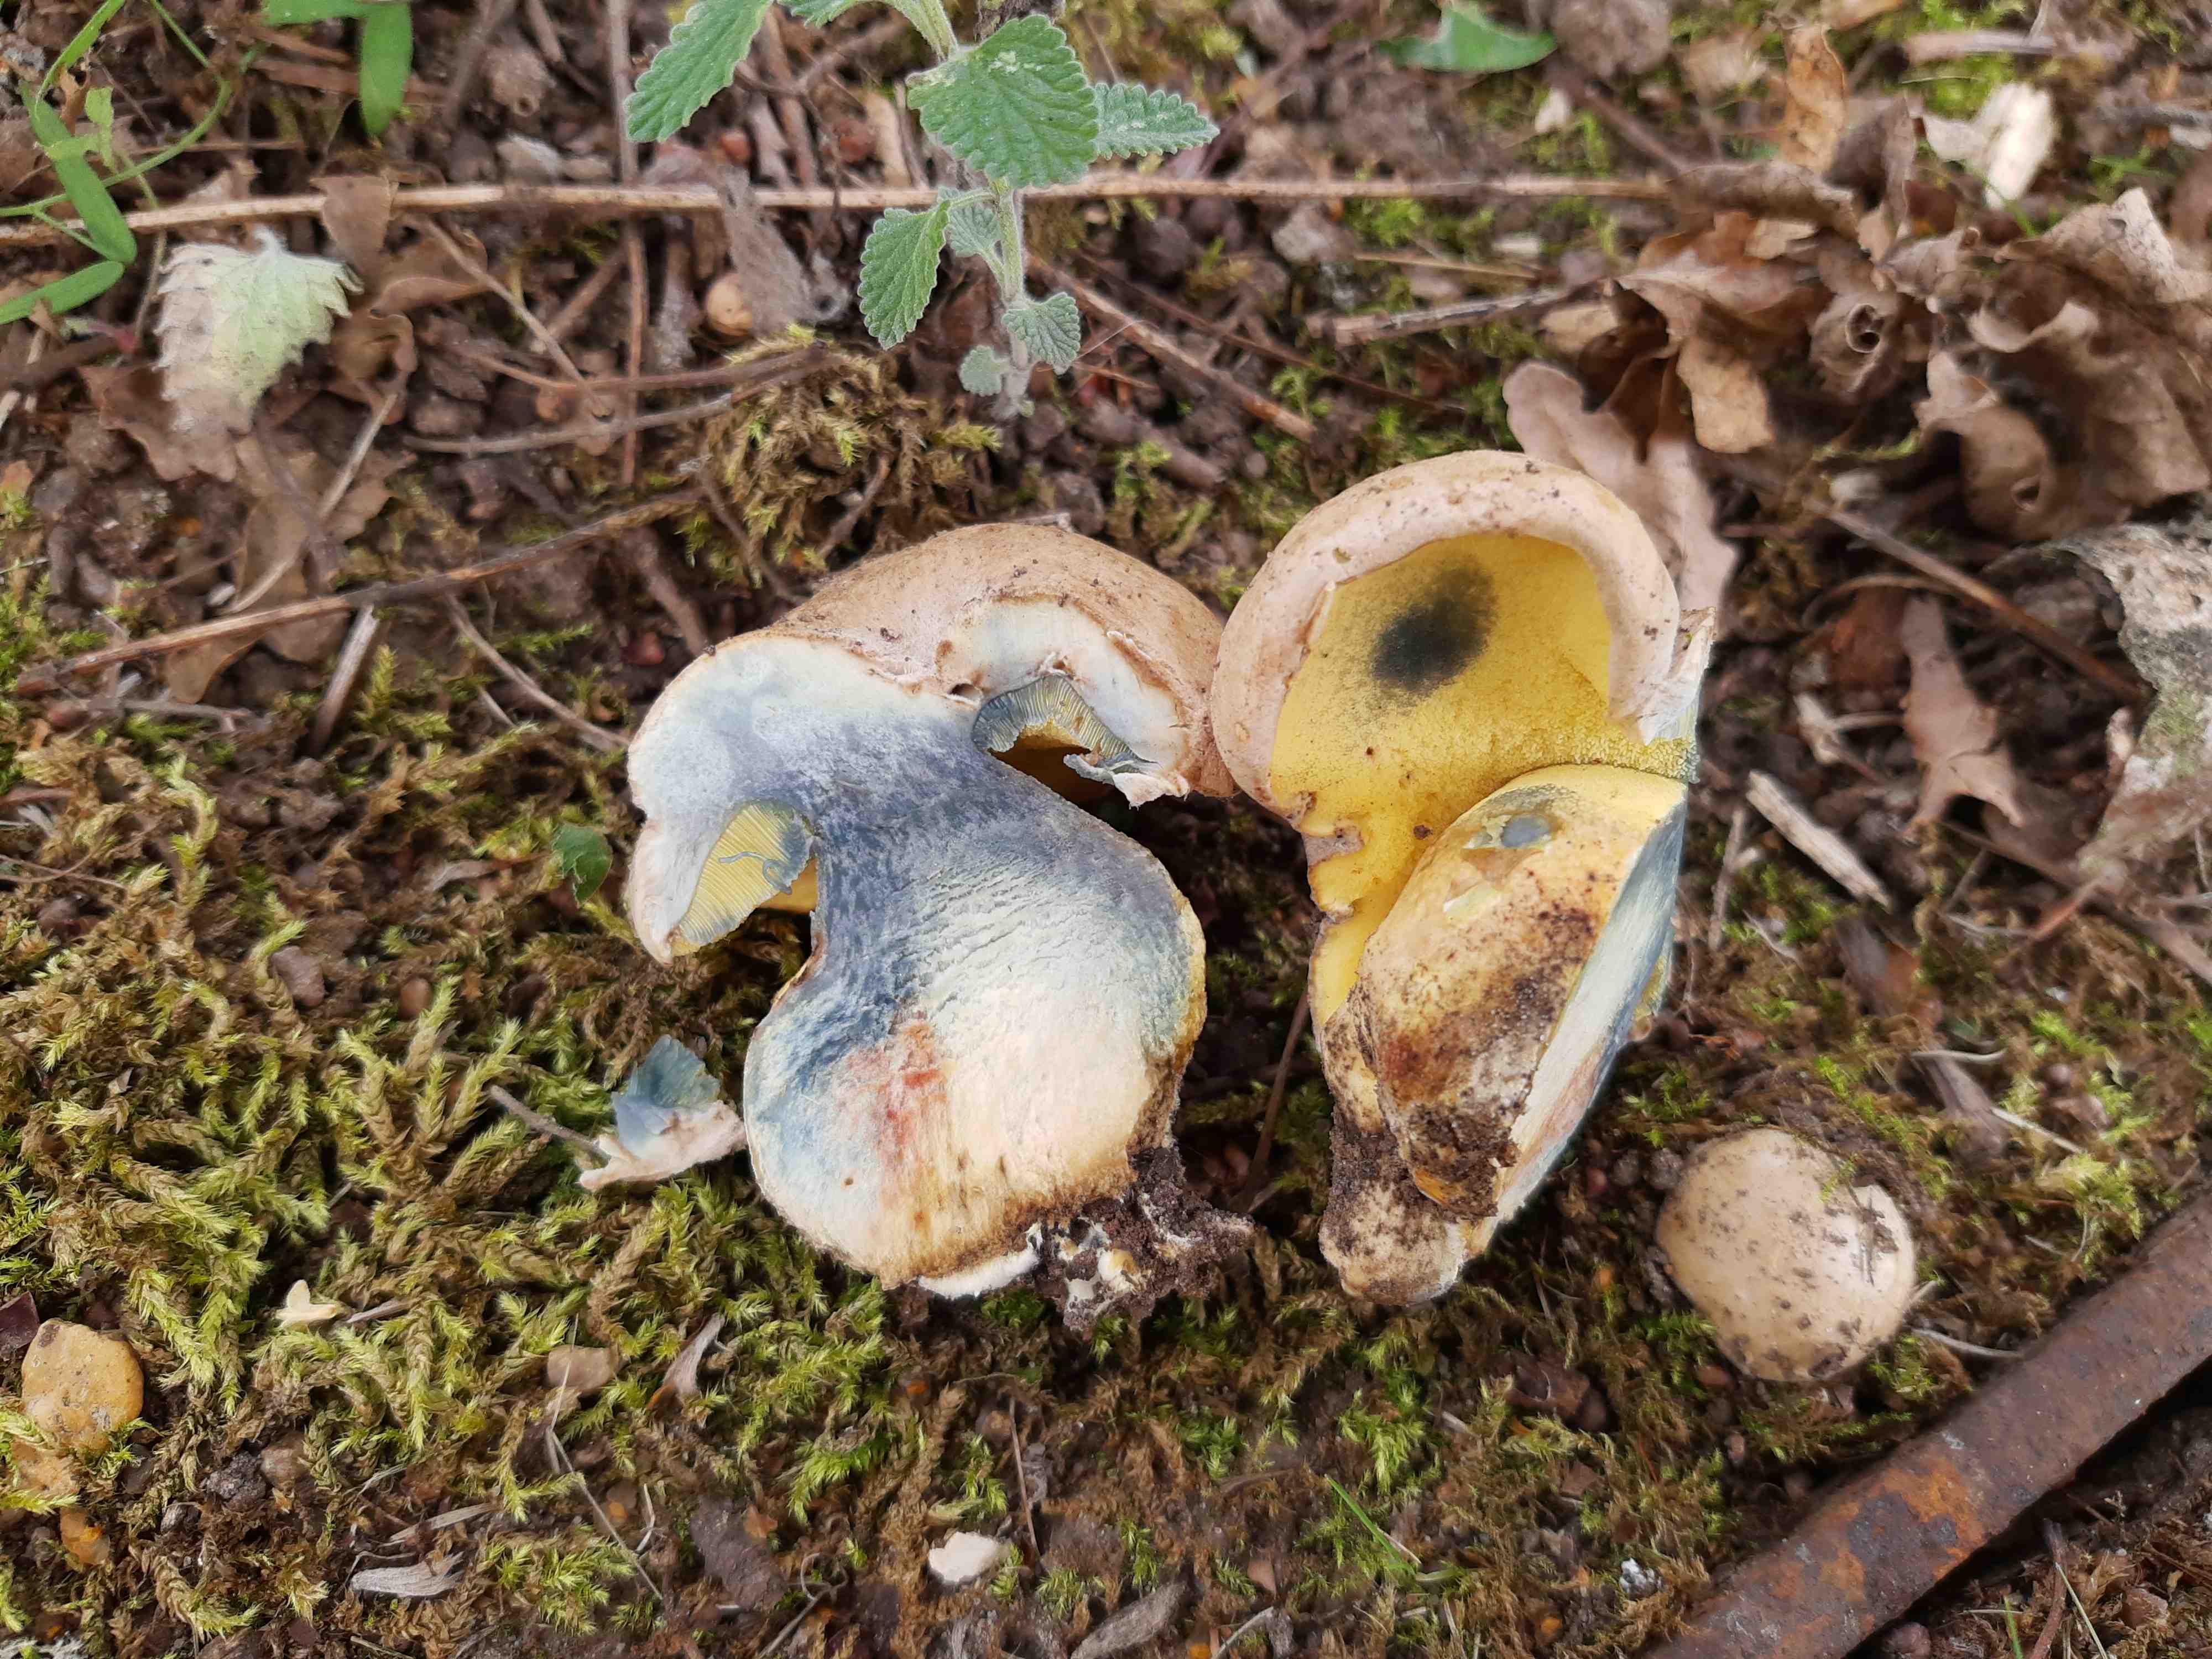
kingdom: Fungi
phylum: Basidiomycota
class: Agaricomycetes
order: Boletales
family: Boletaceae
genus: Caloboletus
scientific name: Caloboletus radicans
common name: rod-rørhat
